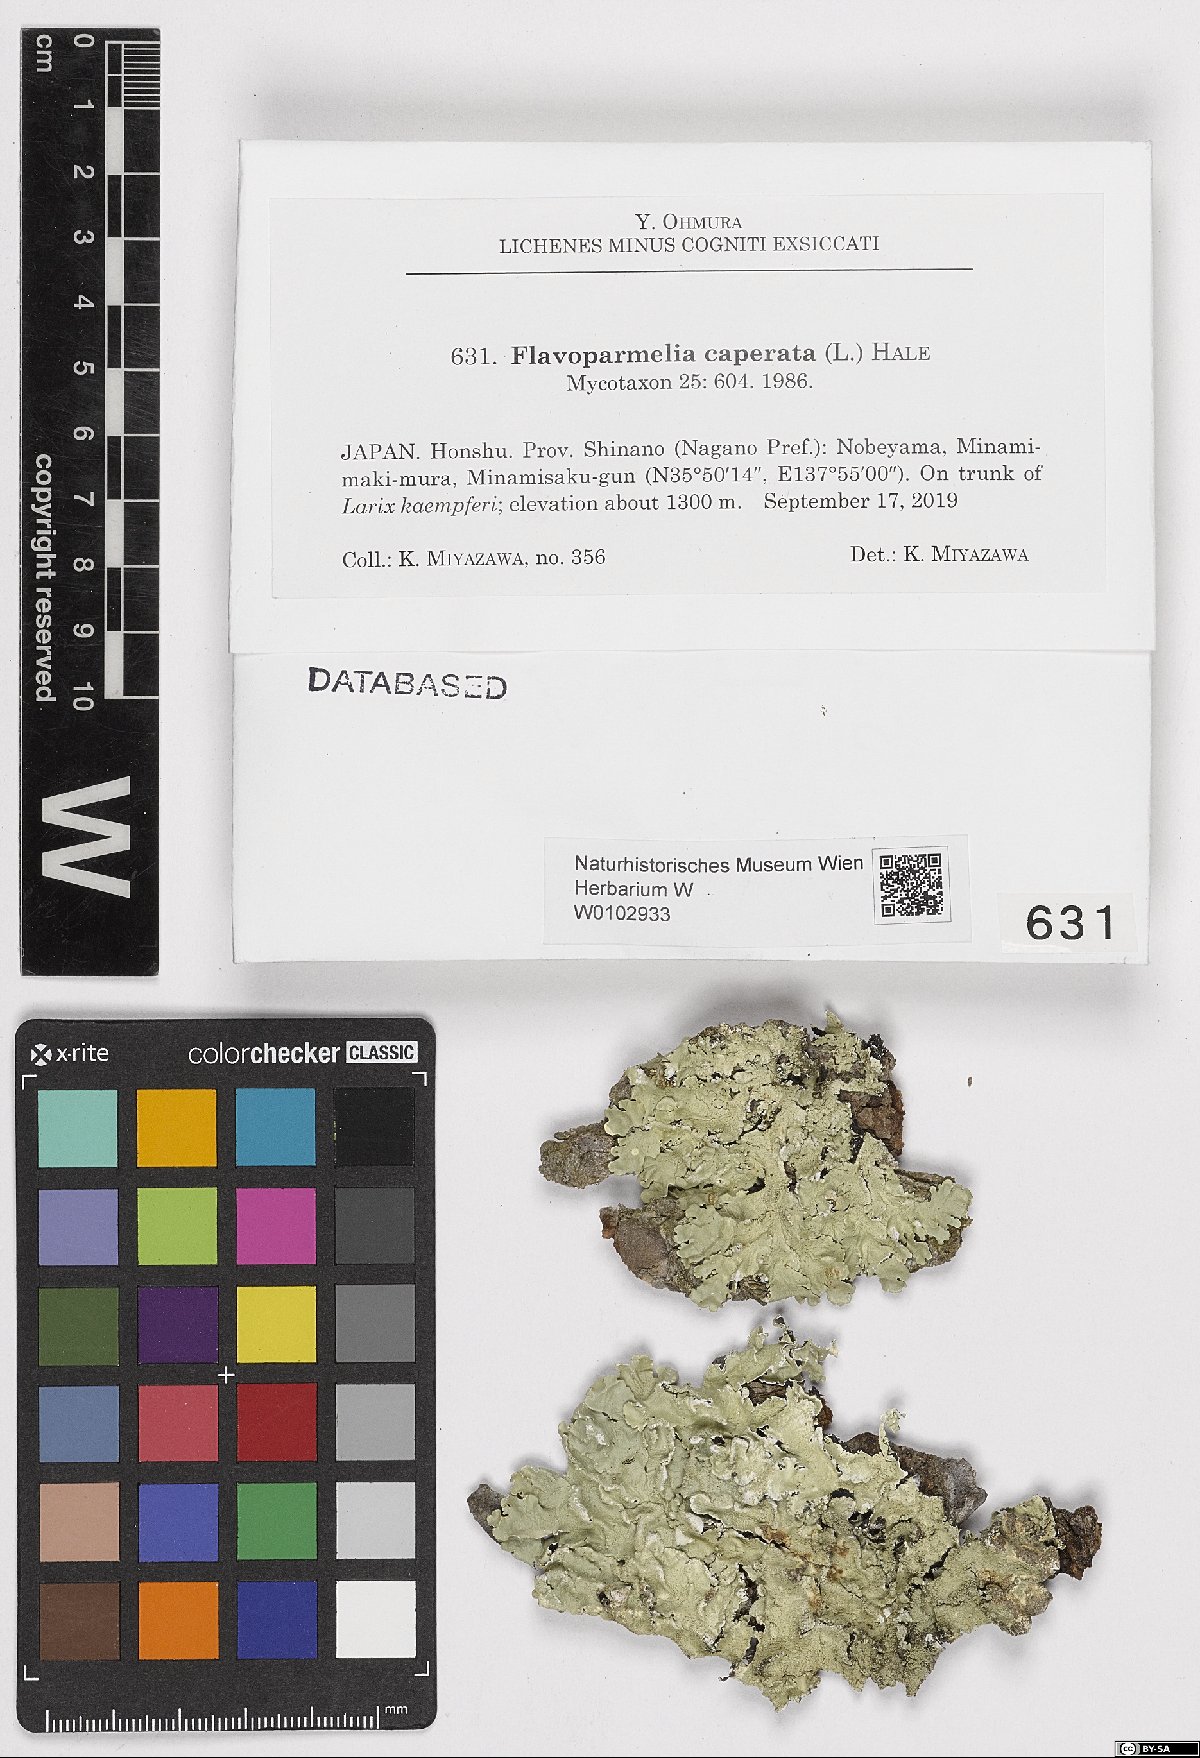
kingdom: Fungi
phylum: Ascomycota
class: Lecanoromycetes
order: Lecanorales
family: Parmeliaceae
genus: Flavoparmelia
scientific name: Flavoparmelia caperata
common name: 40-mile per hour lichen
